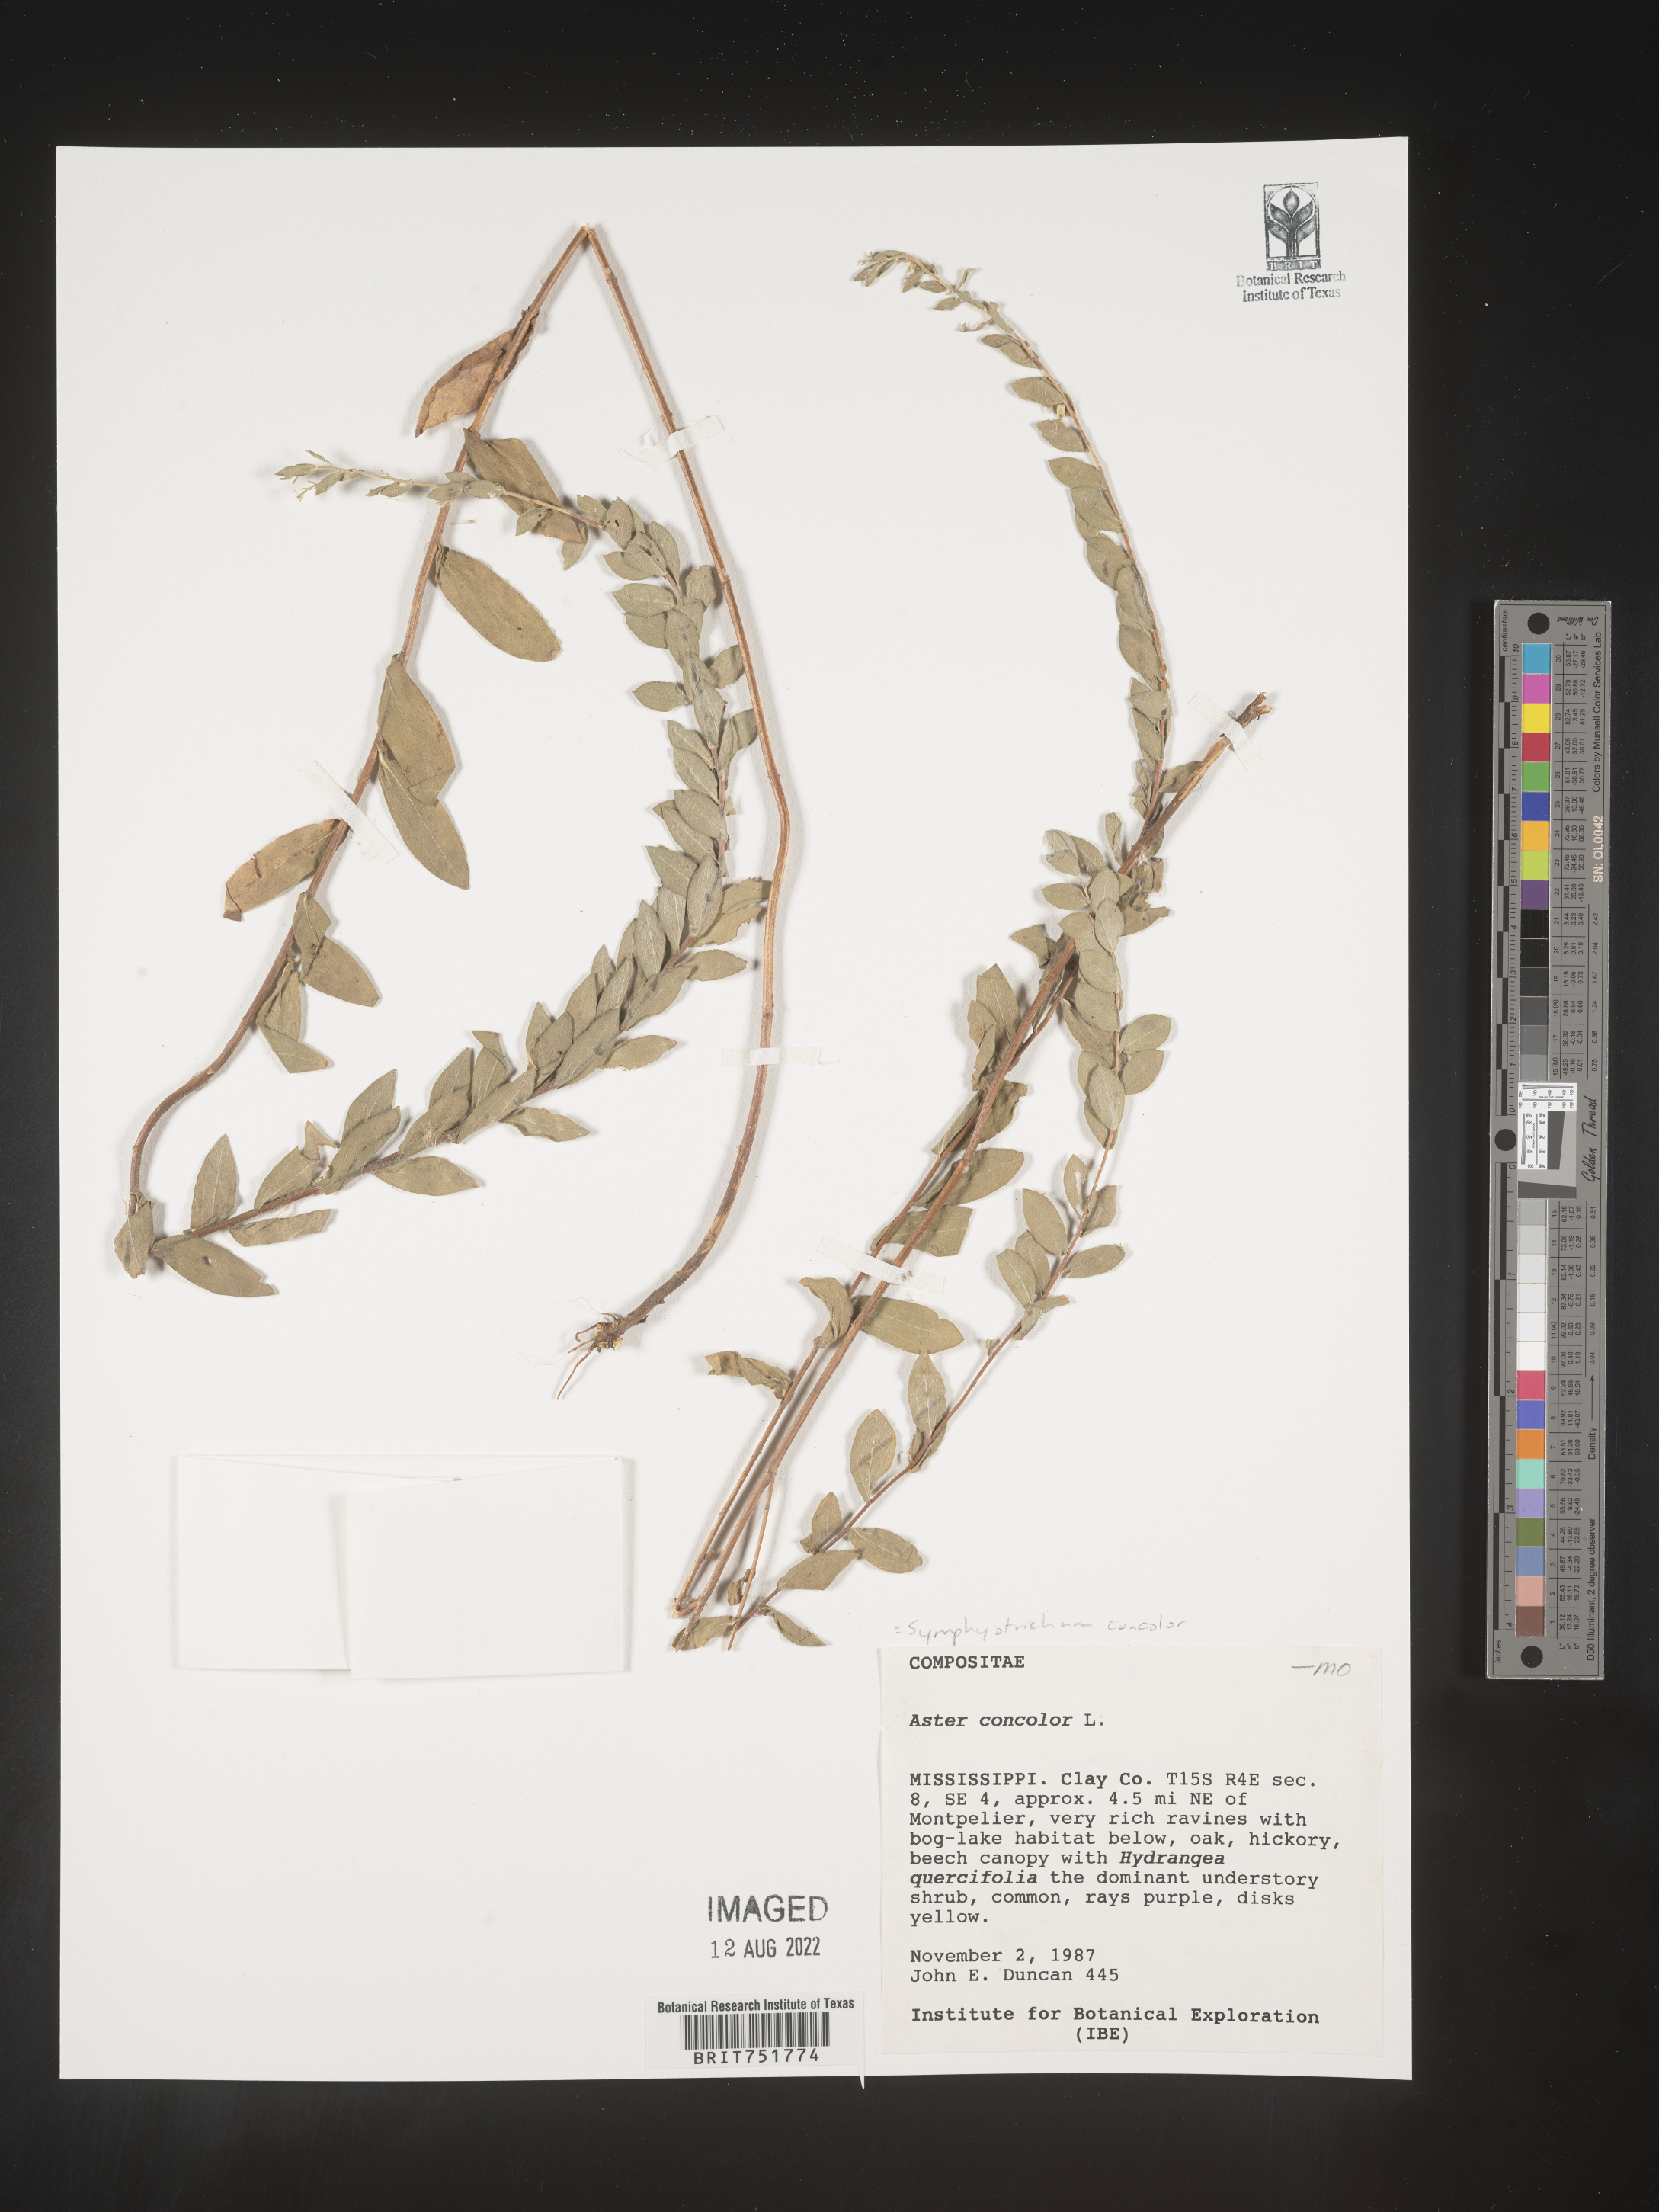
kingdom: Plantae
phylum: Tracheophyta
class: Magnoliopsida
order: Asterales
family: Asteraceae
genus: Symphyotrichum
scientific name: Symphyotrichum concolor
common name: Eastern silver aster
